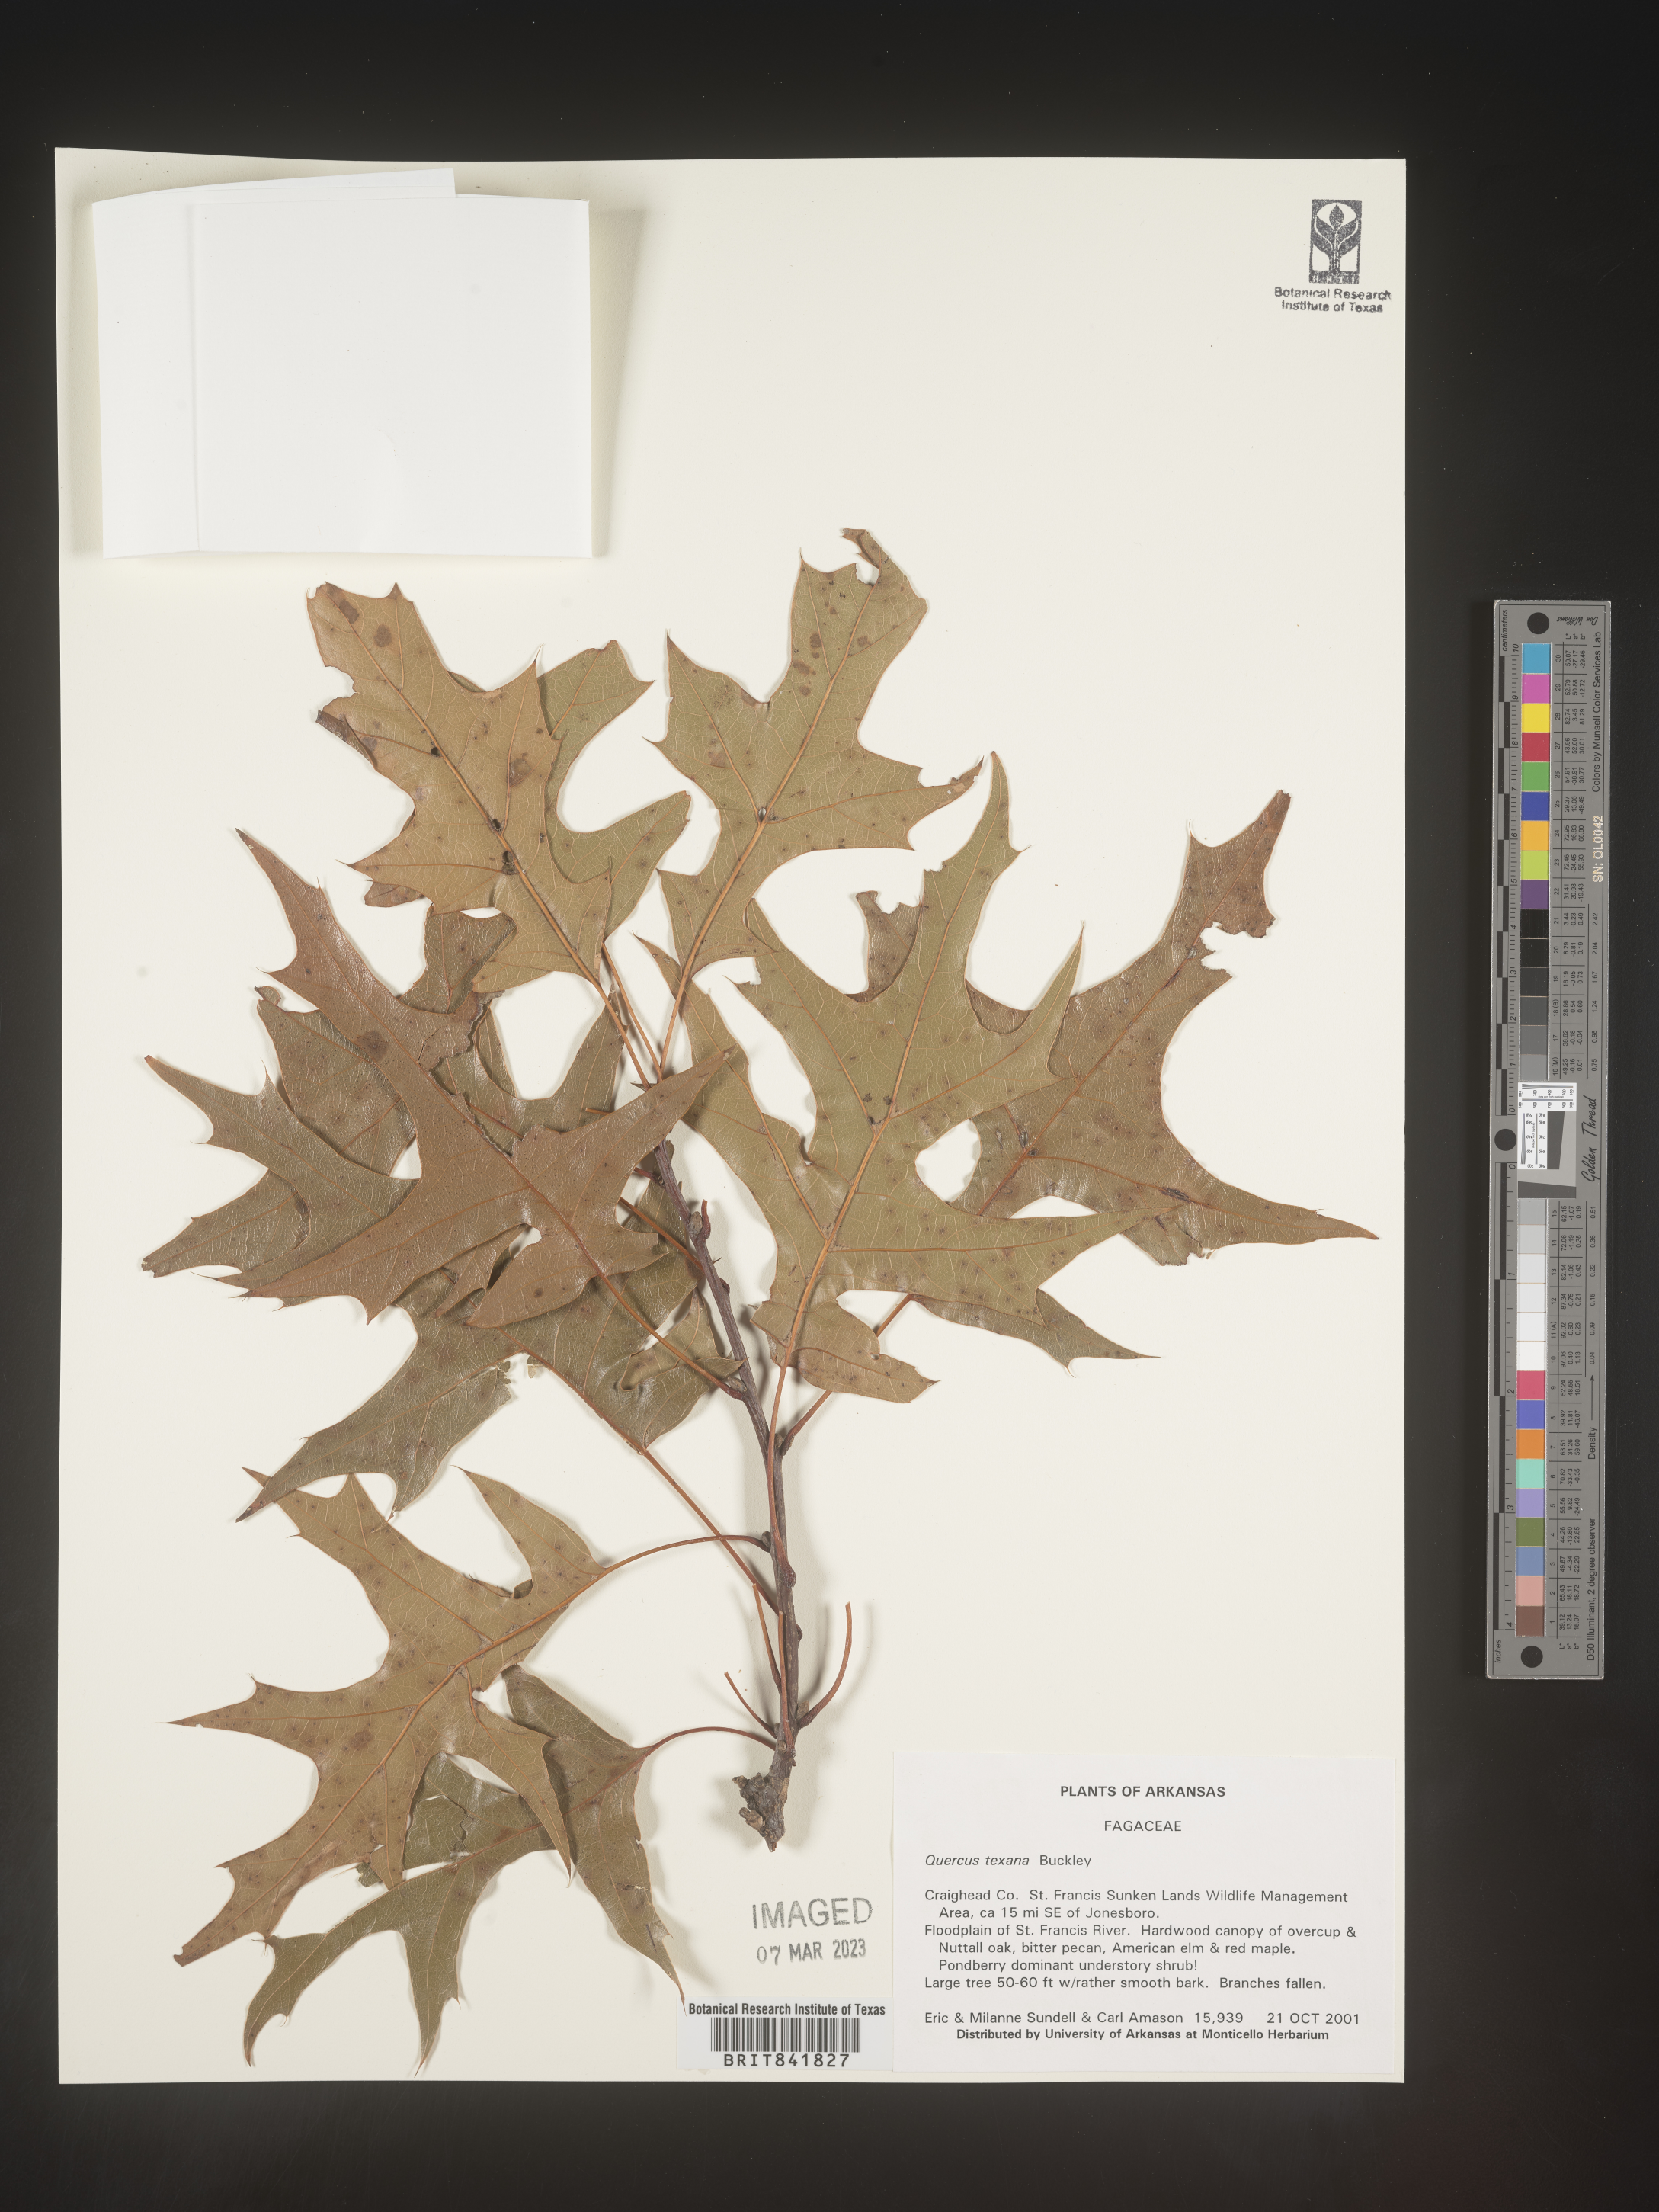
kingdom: Plantae
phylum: Tracheophyta
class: Magnoliopsida
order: Fagales
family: Fagaceae
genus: Quercus
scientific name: Quercus texana
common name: Nuttall oak
